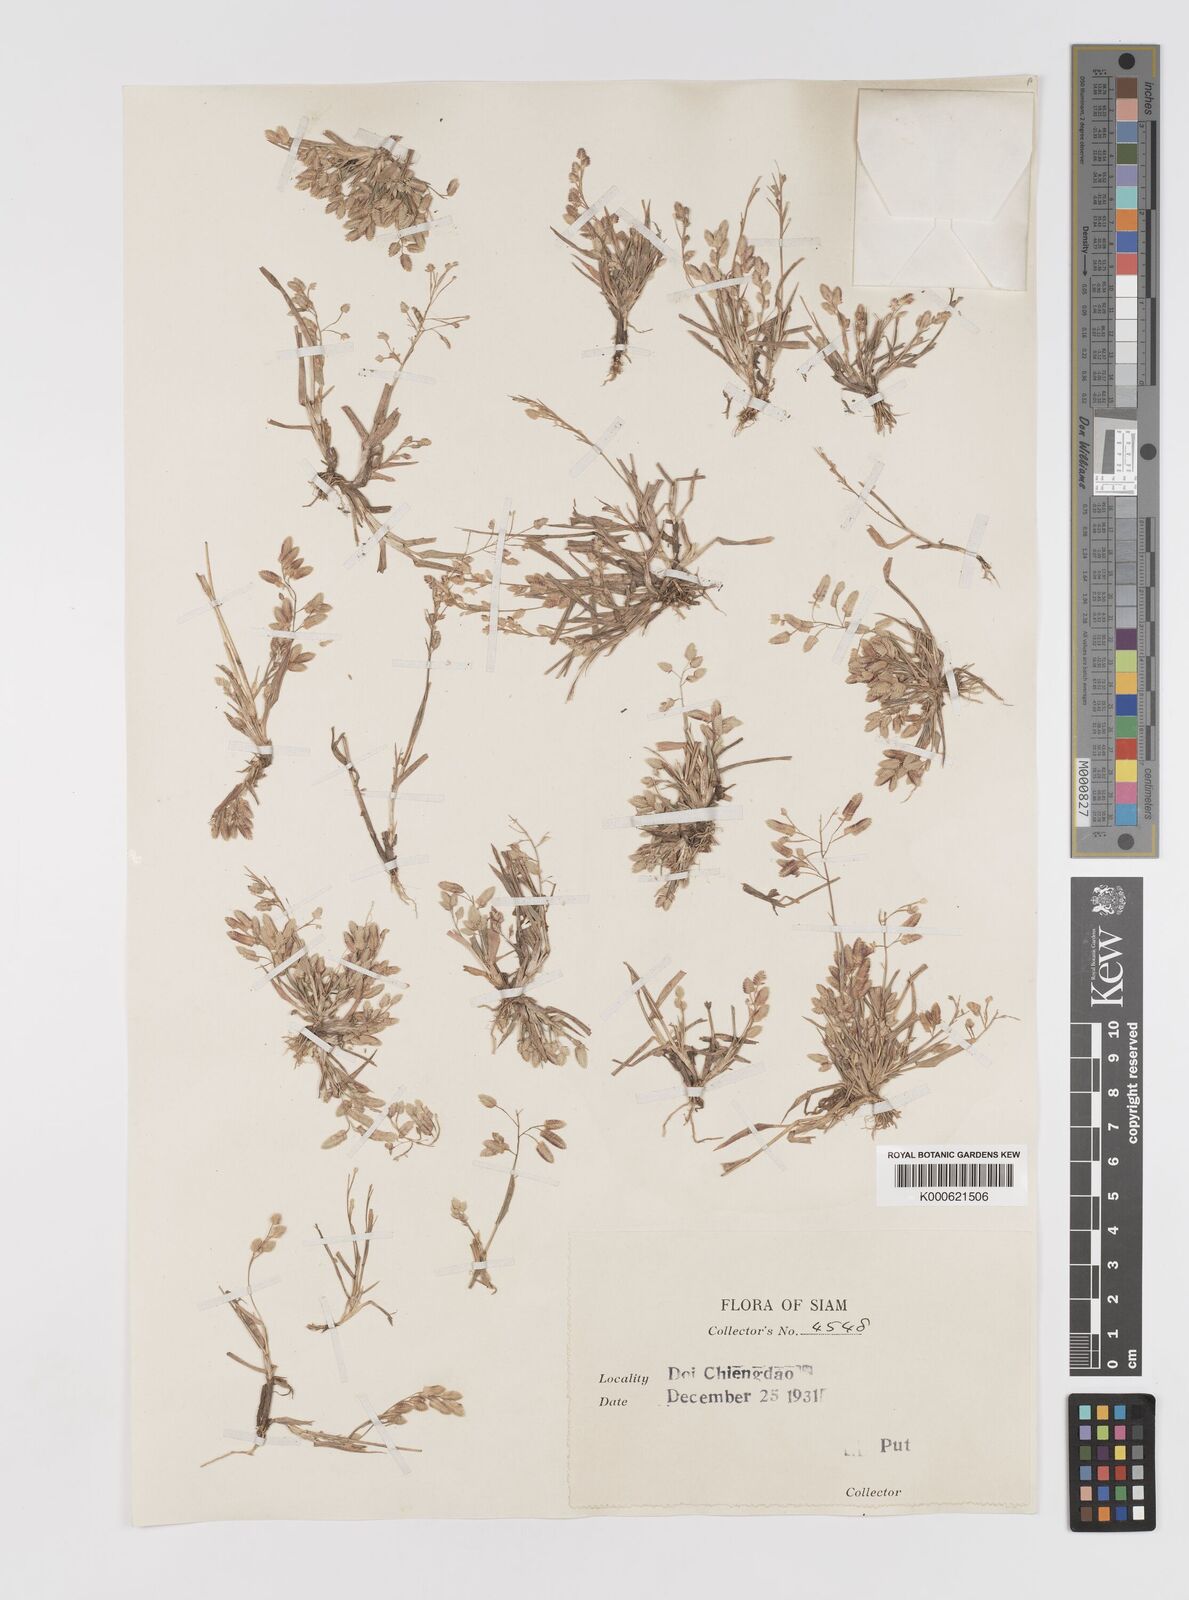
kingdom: Plantae
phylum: Tracheophyta
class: Liliopsida
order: Poales
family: Poaceae
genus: Eragrostis
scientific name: Eragrostis unioloides
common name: Chinese lovegrass
